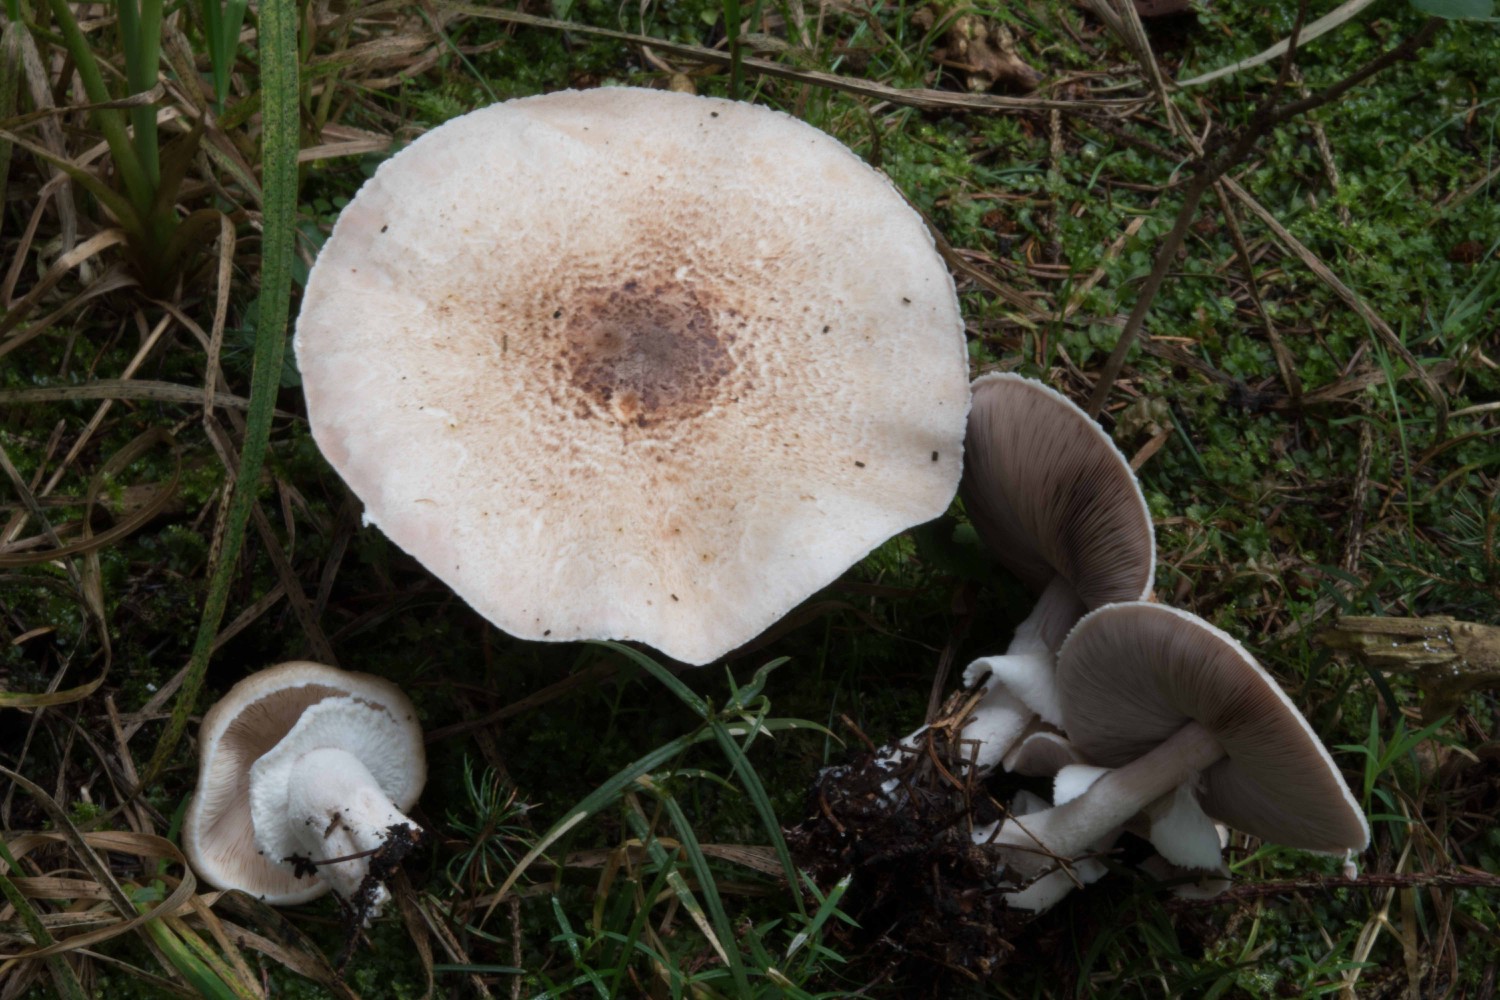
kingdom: Fungi
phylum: Basidiomycota
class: Agaricomycetes
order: Agaricales
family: Agaricaceae
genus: Agaricus
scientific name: Agaricus impudicus
